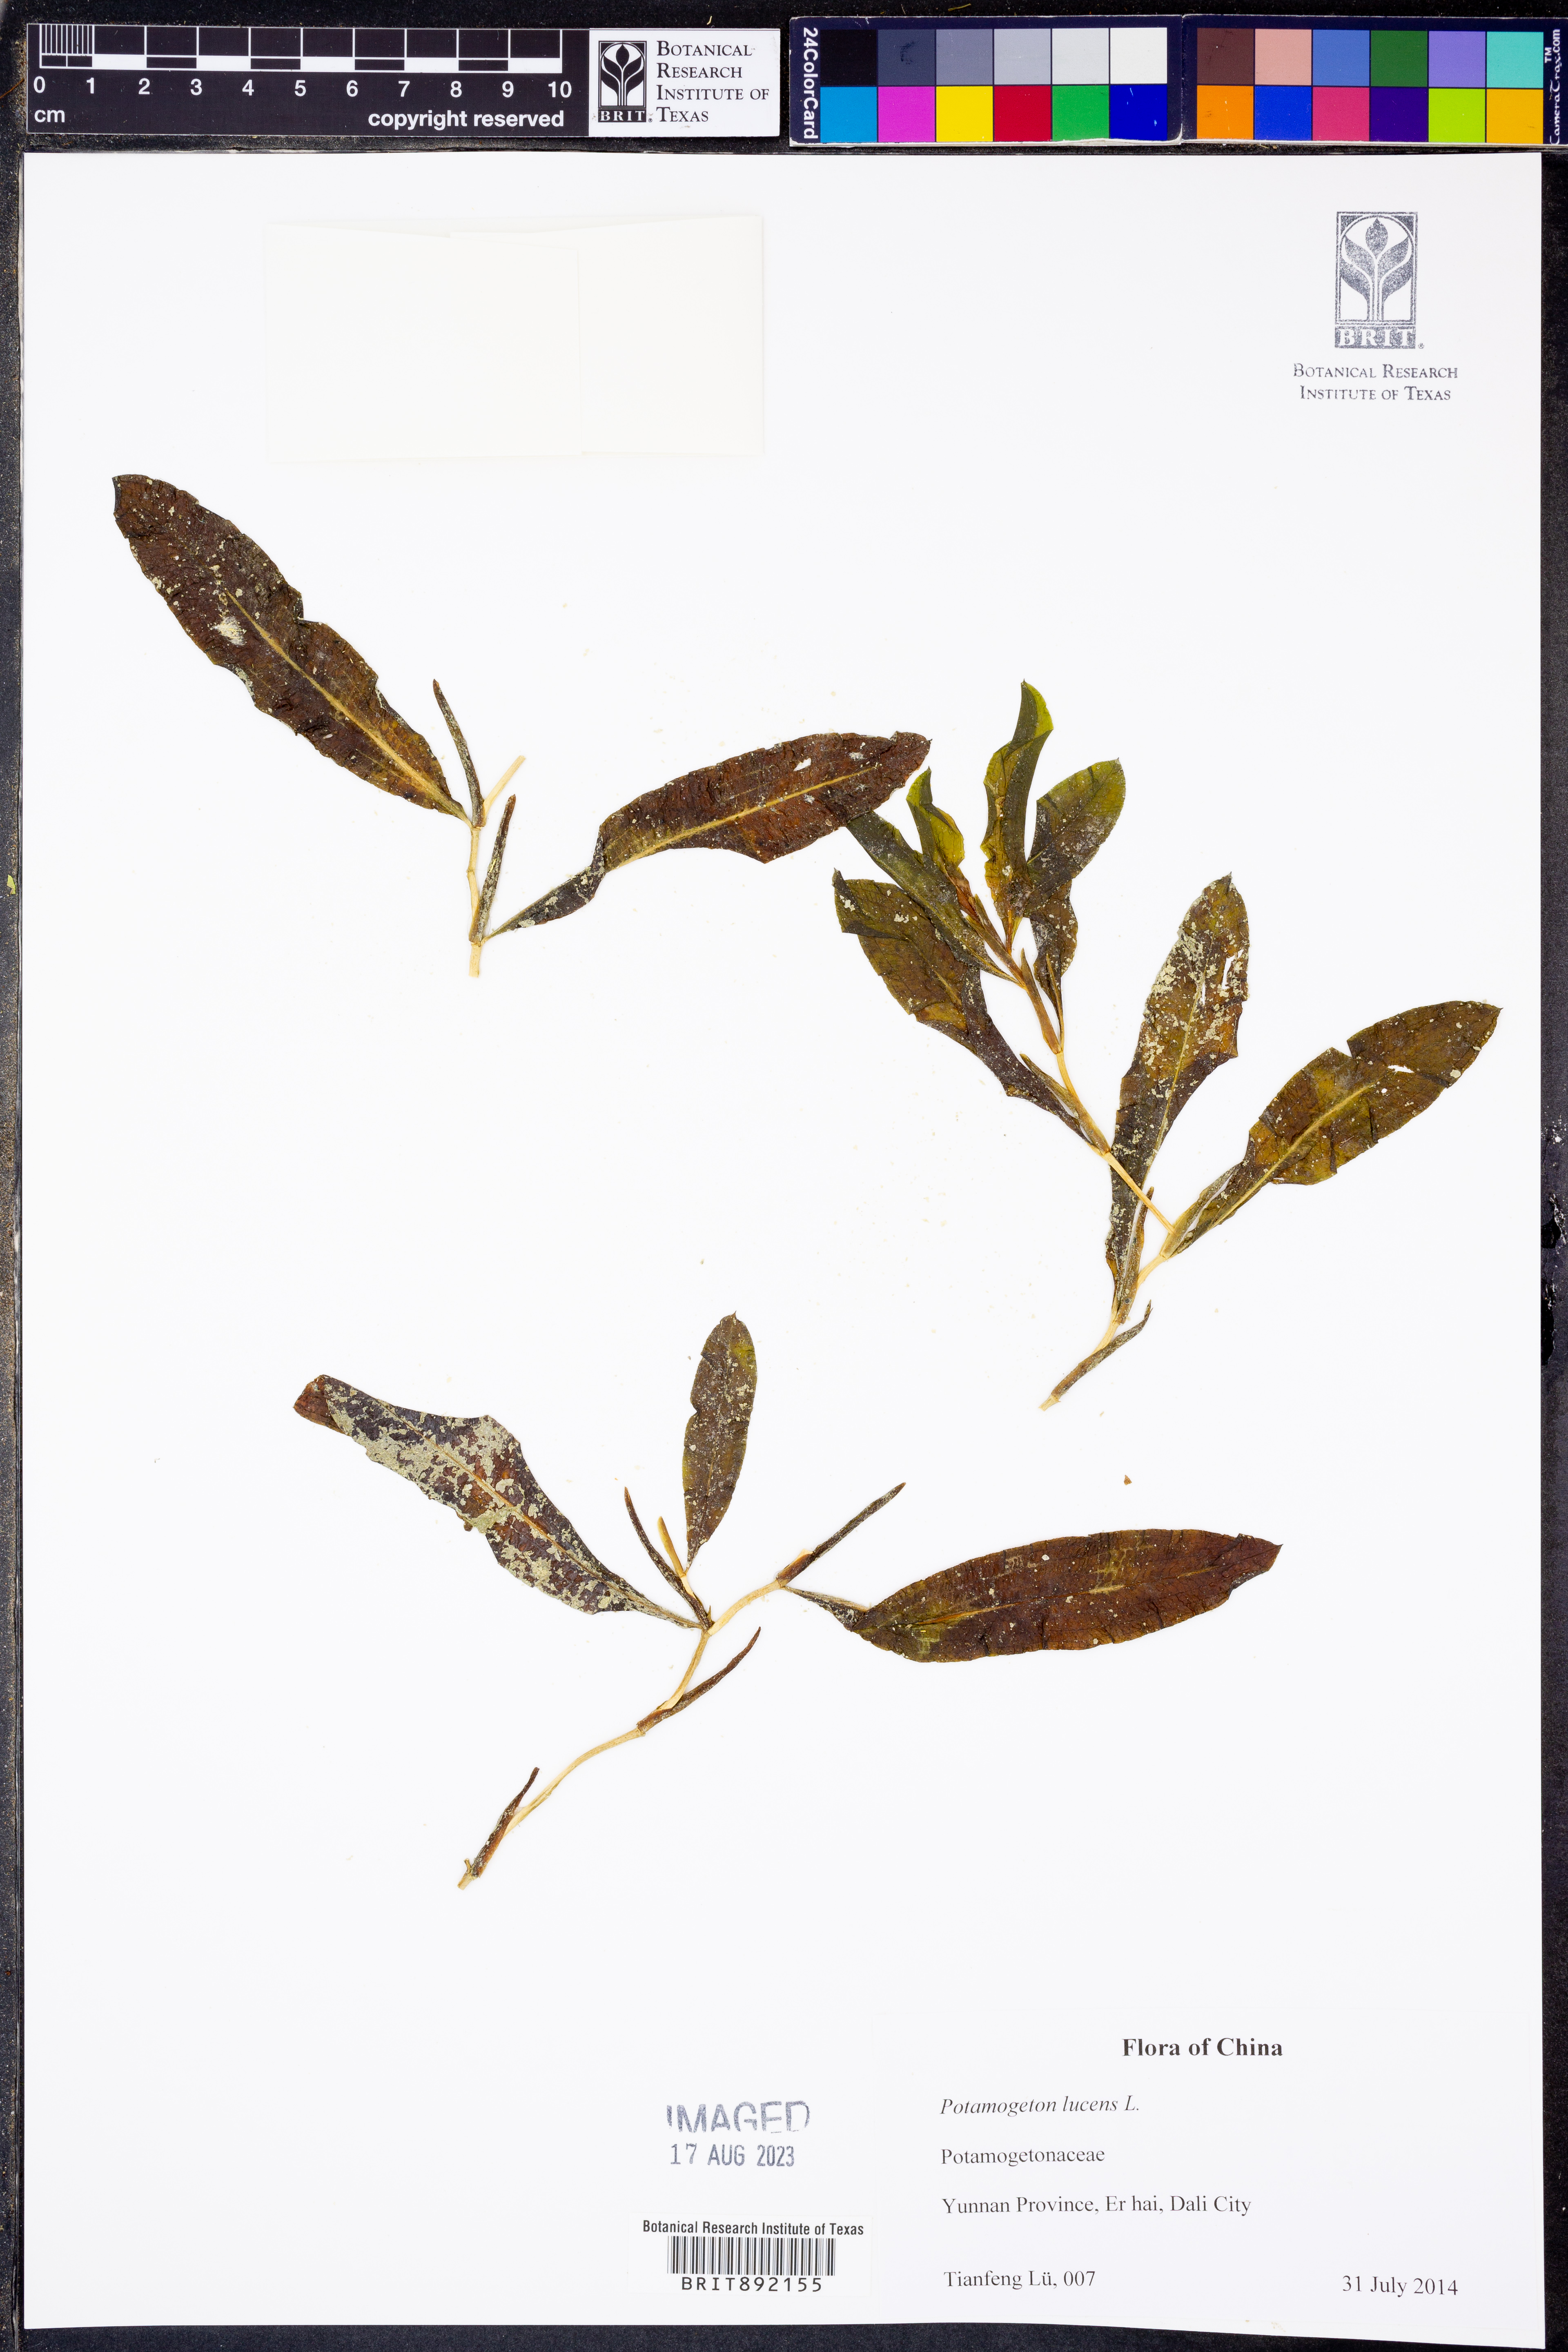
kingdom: Plantae
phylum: Tracheophyta
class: Liliopsida
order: Alismatales
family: Potamogetonaceae
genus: Potamogeton
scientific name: Potamogeton lucens
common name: Shining pondweed
